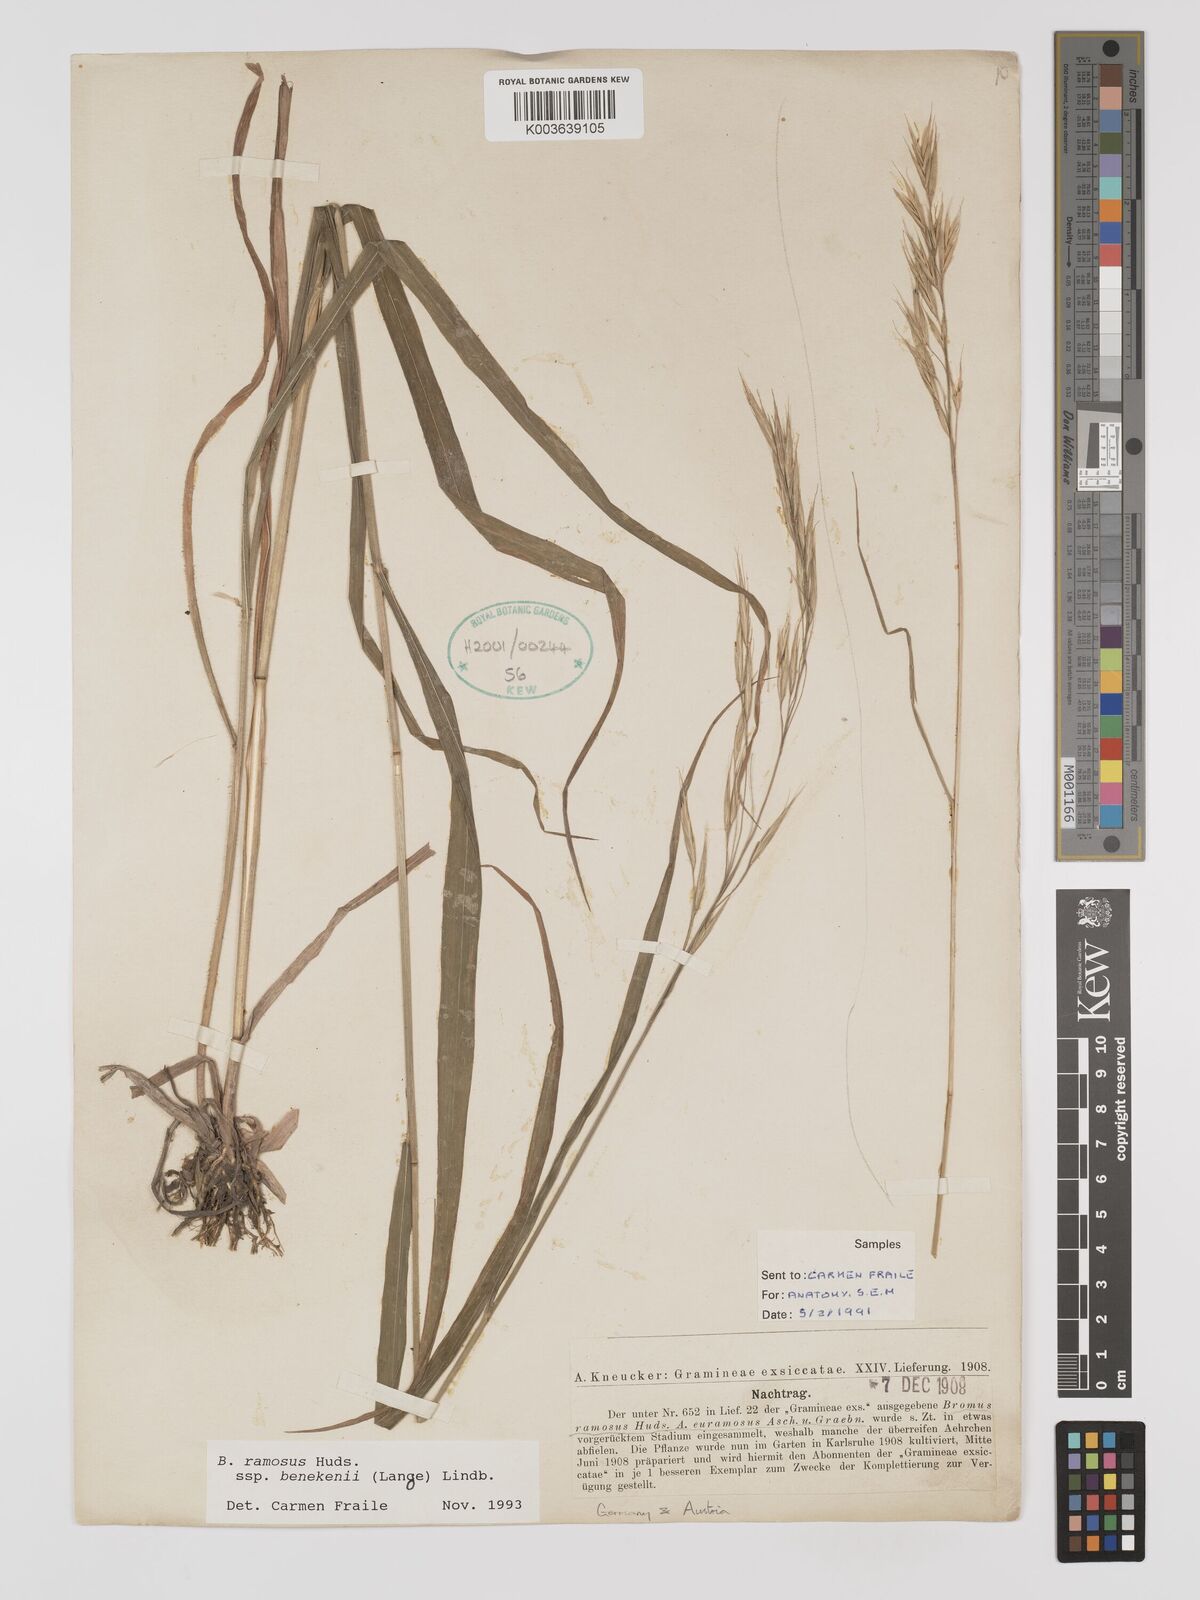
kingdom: Plantae
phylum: Tracheophyta
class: Liliopsida
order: Poales
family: Poaceae
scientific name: Poaceae
